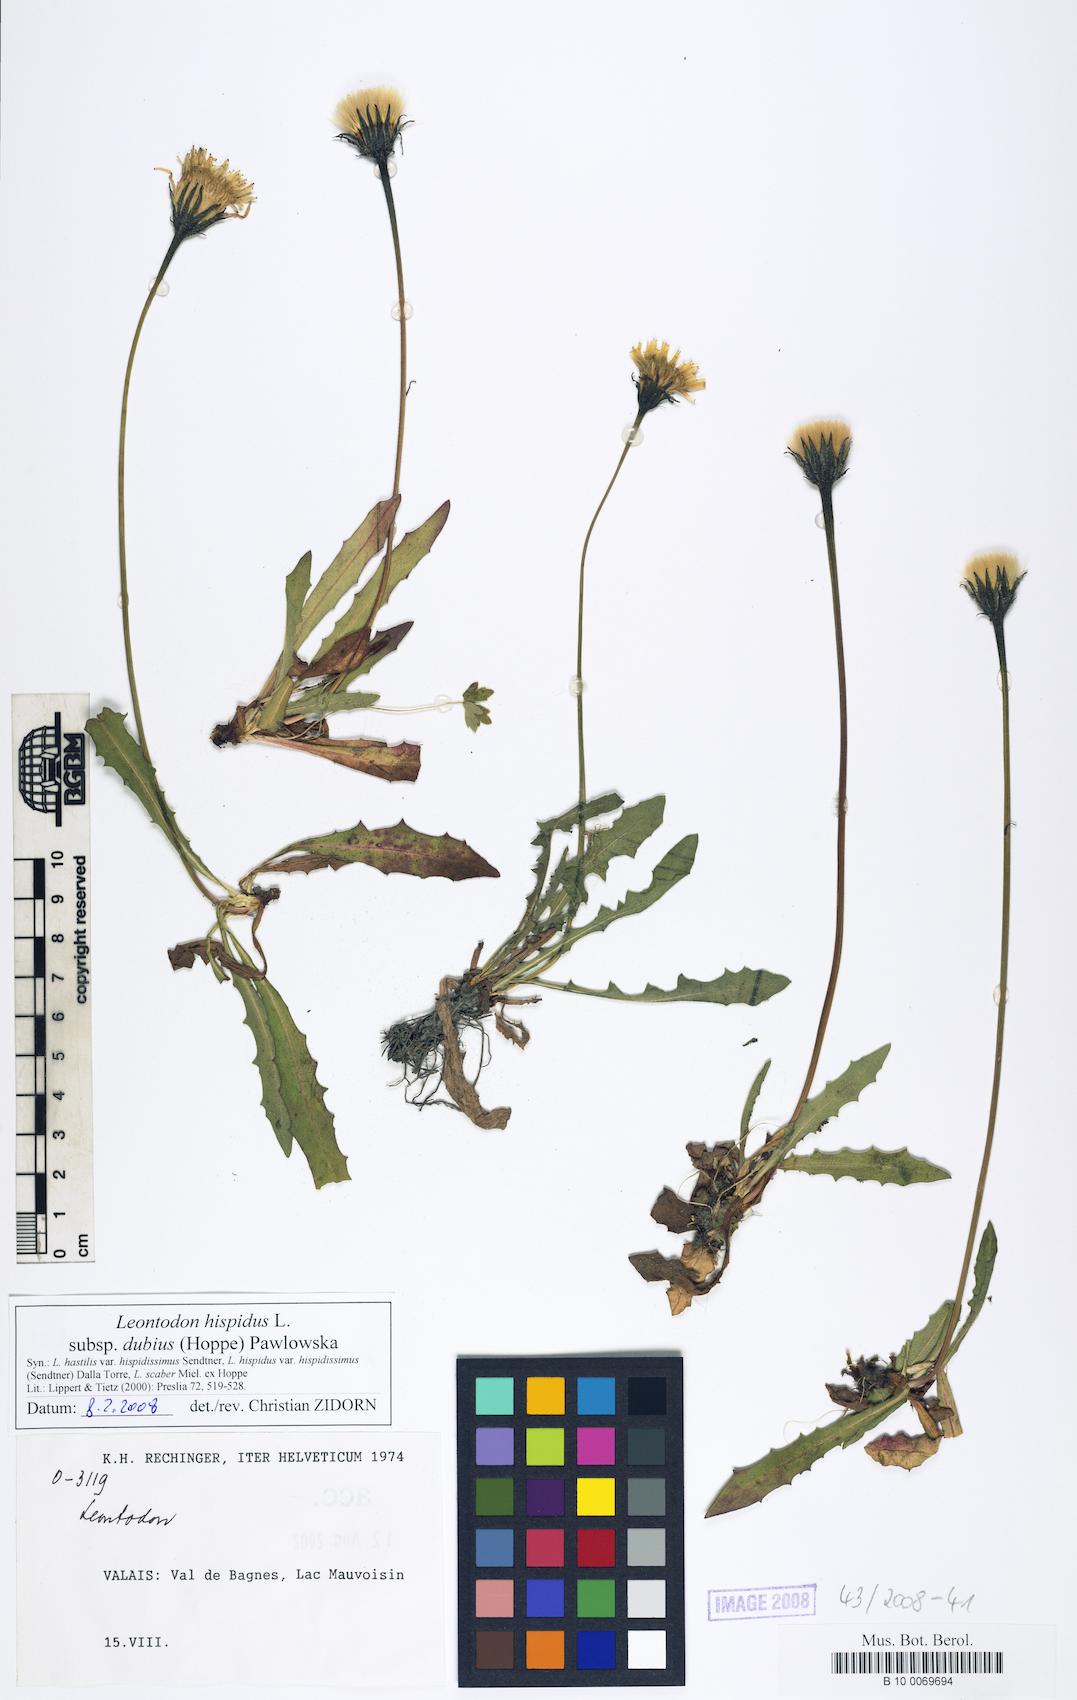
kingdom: Plantae
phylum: Tracheophyta
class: Magnoliopsida
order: Asterales
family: Asteraceae
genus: Leontodon
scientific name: Leontodon hispidus
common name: Rough hawkbit
